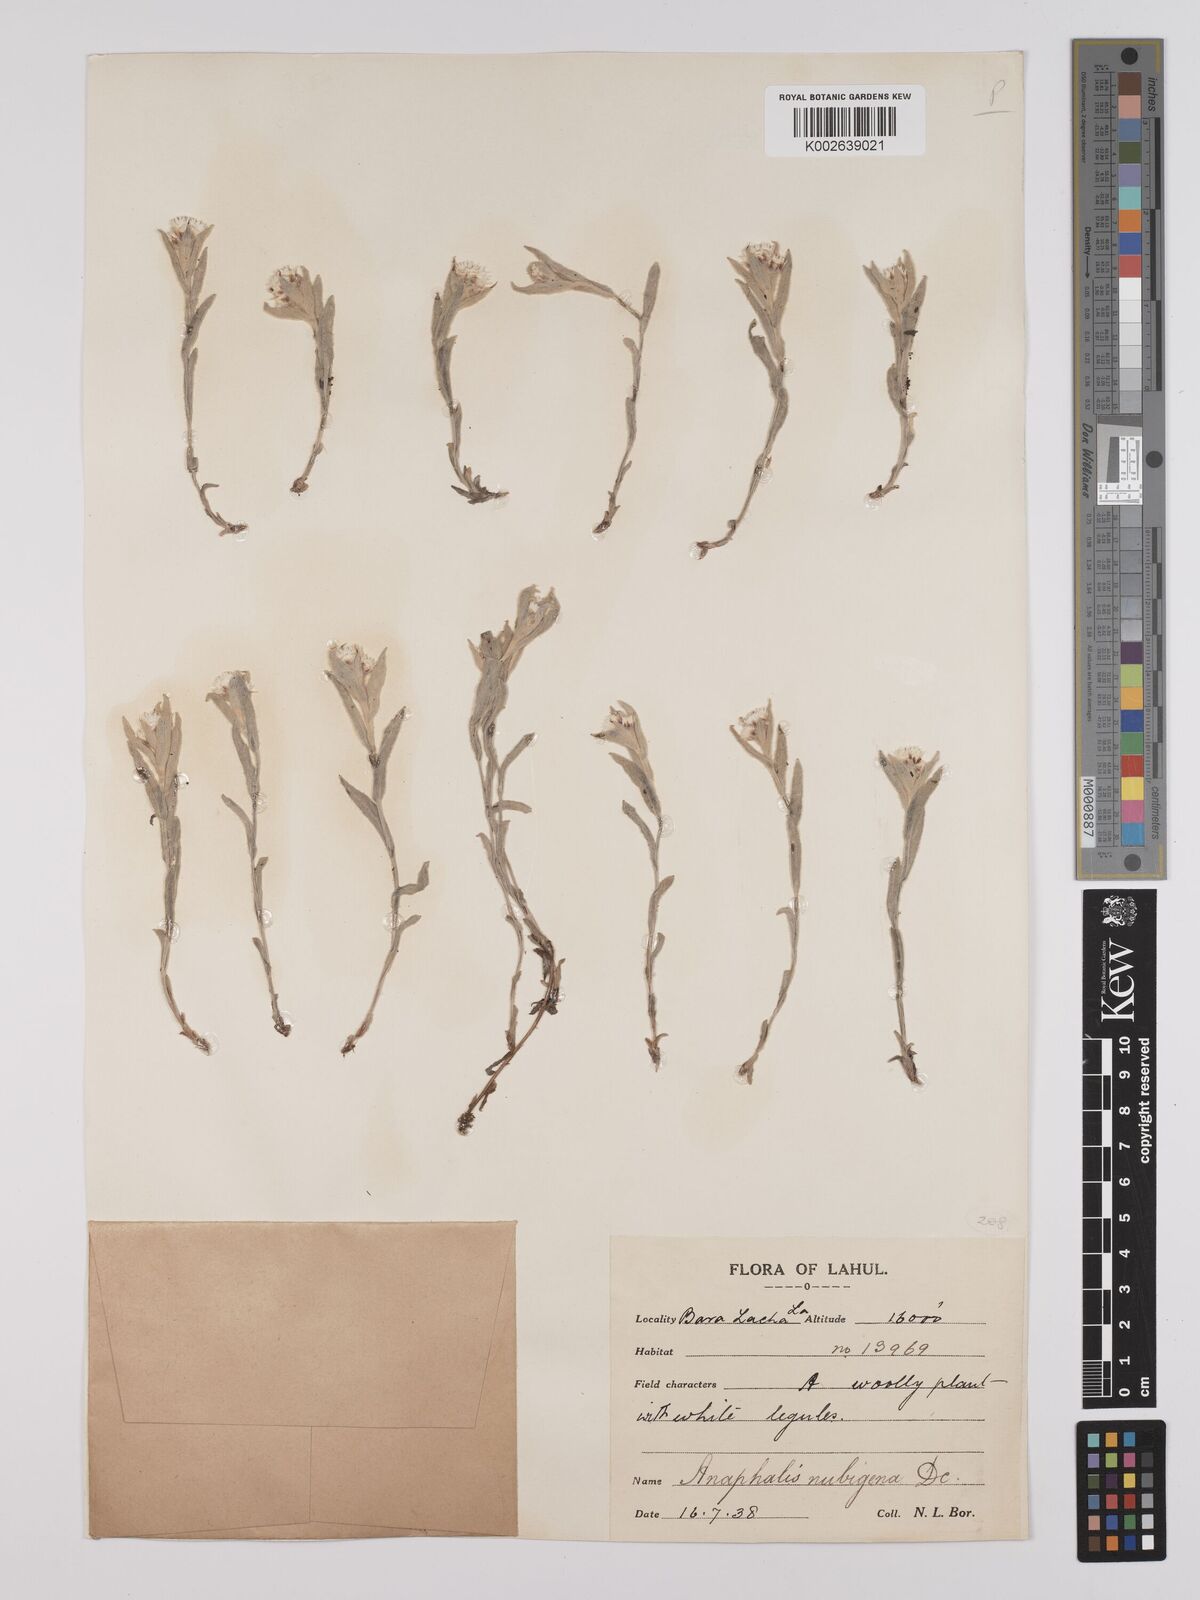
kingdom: Plantae
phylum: Tracheophyta
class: Magnoliopsida
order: Asterales
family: Asteraceae
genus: Anaphalis
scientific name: Anaphalis nepalensis
